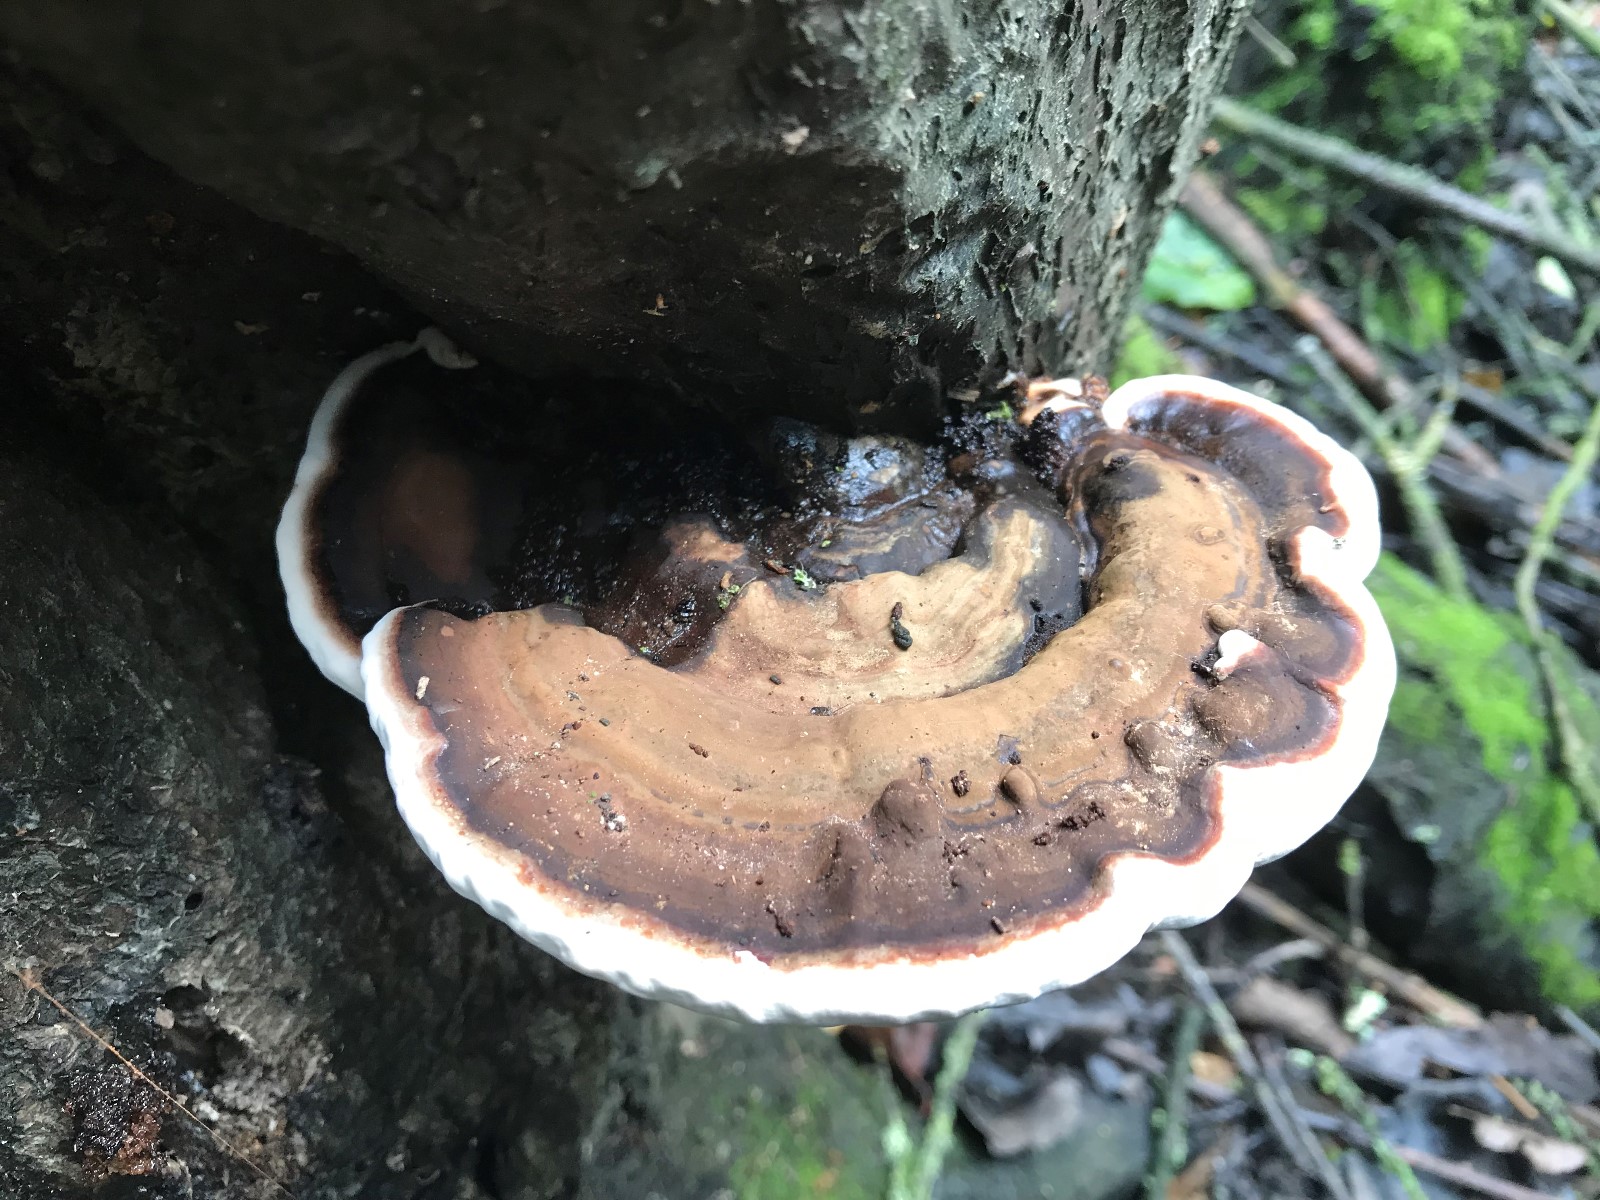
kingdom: Fungi
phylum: Basidiomycota
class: Agaricomycetes
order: Polyporales
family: Polyporaceae
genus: Ganoderma
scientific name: Ganoderma applanatum
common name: flad lakporesvamp
